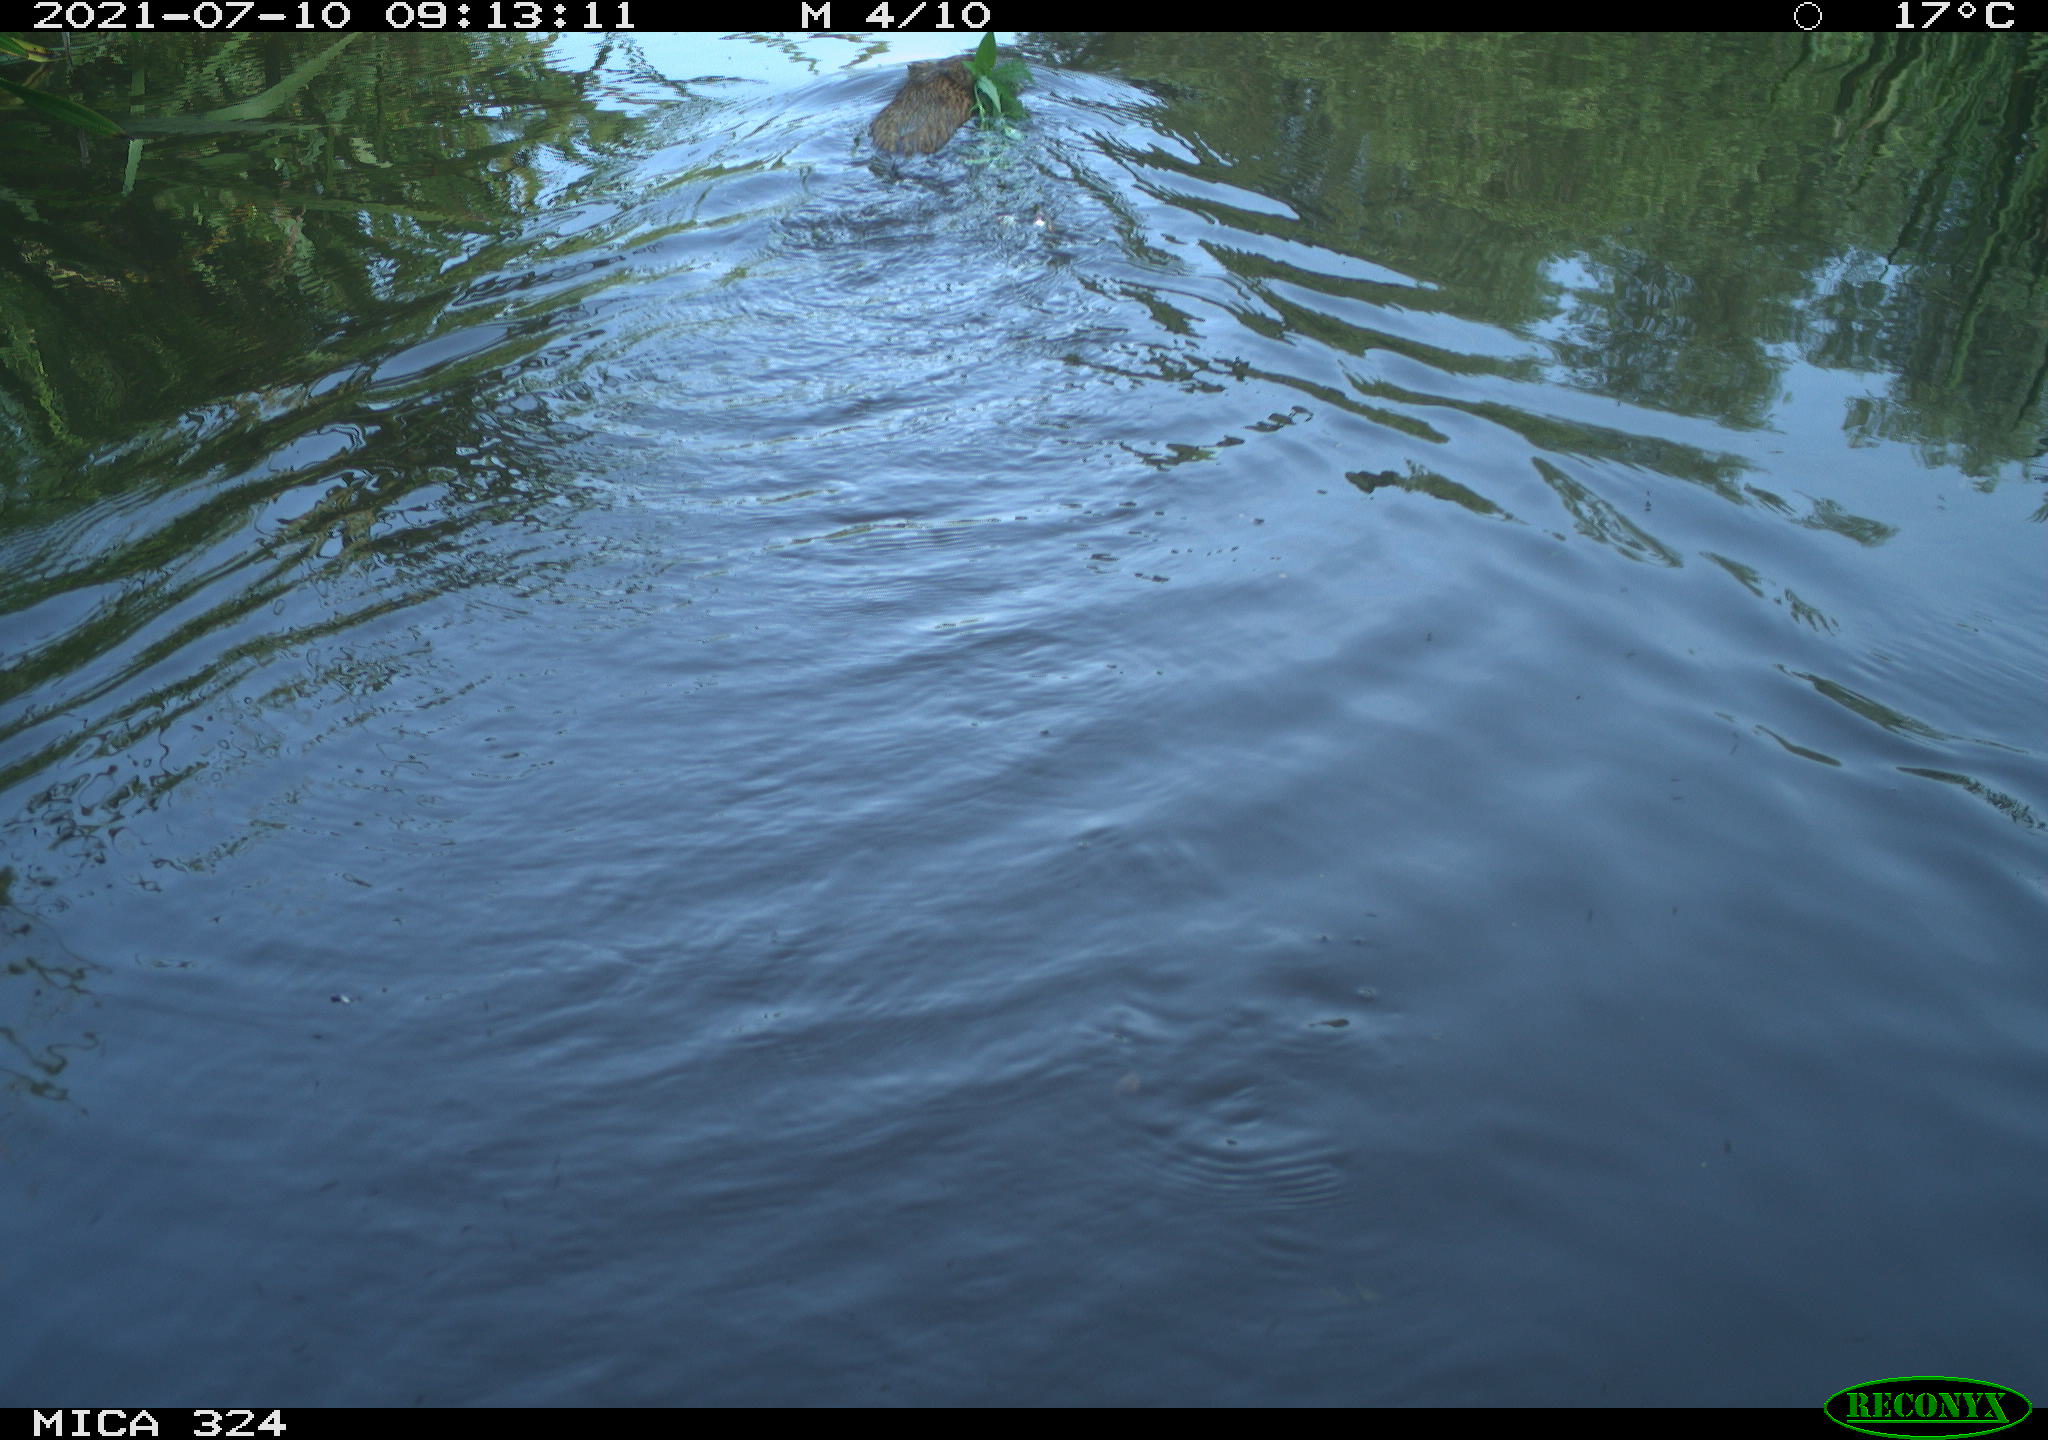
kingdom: Animalia
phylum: Chordata
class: Mammalia
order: Rodentia
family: Cricetidae
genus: Ondatra
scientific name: Ondatra zibethicus
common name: Muskrat
